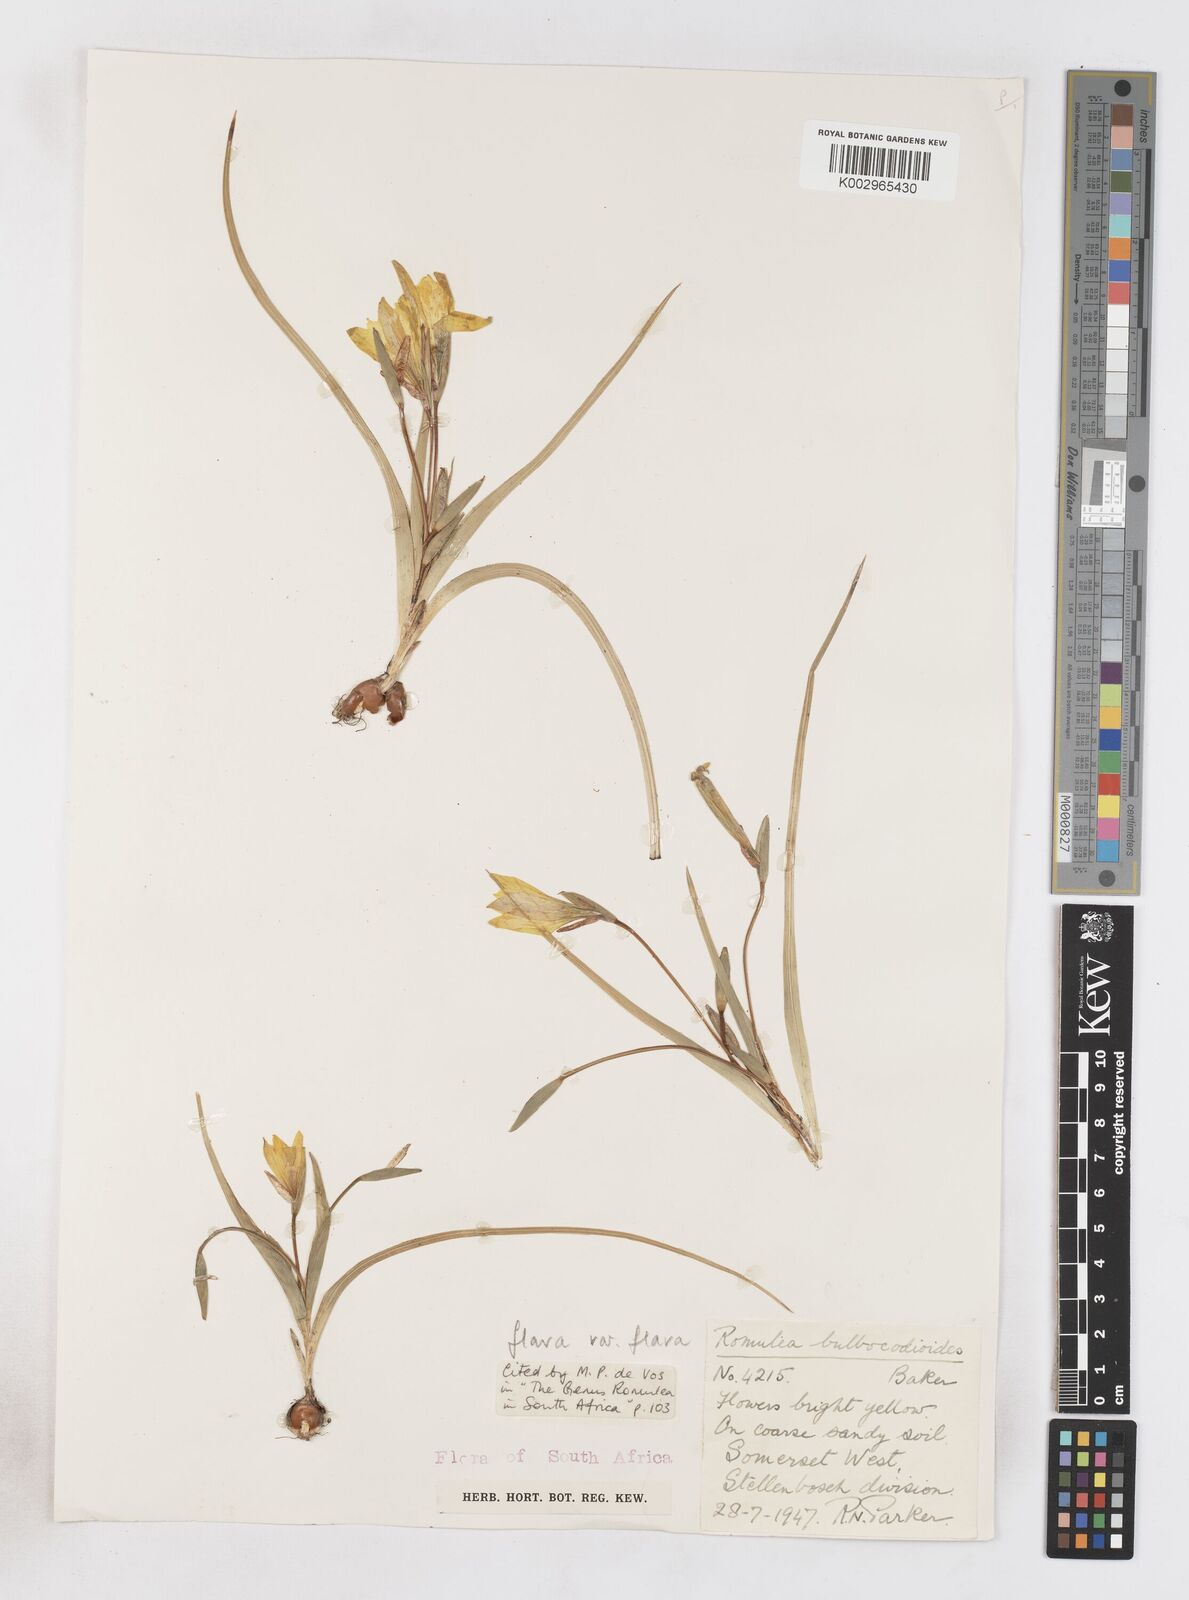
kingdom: Plantae
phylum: Tracheophyta
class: Liliopsida
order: Asparagales
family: Iridaceae
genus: Romulea
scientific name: Romulea flava
